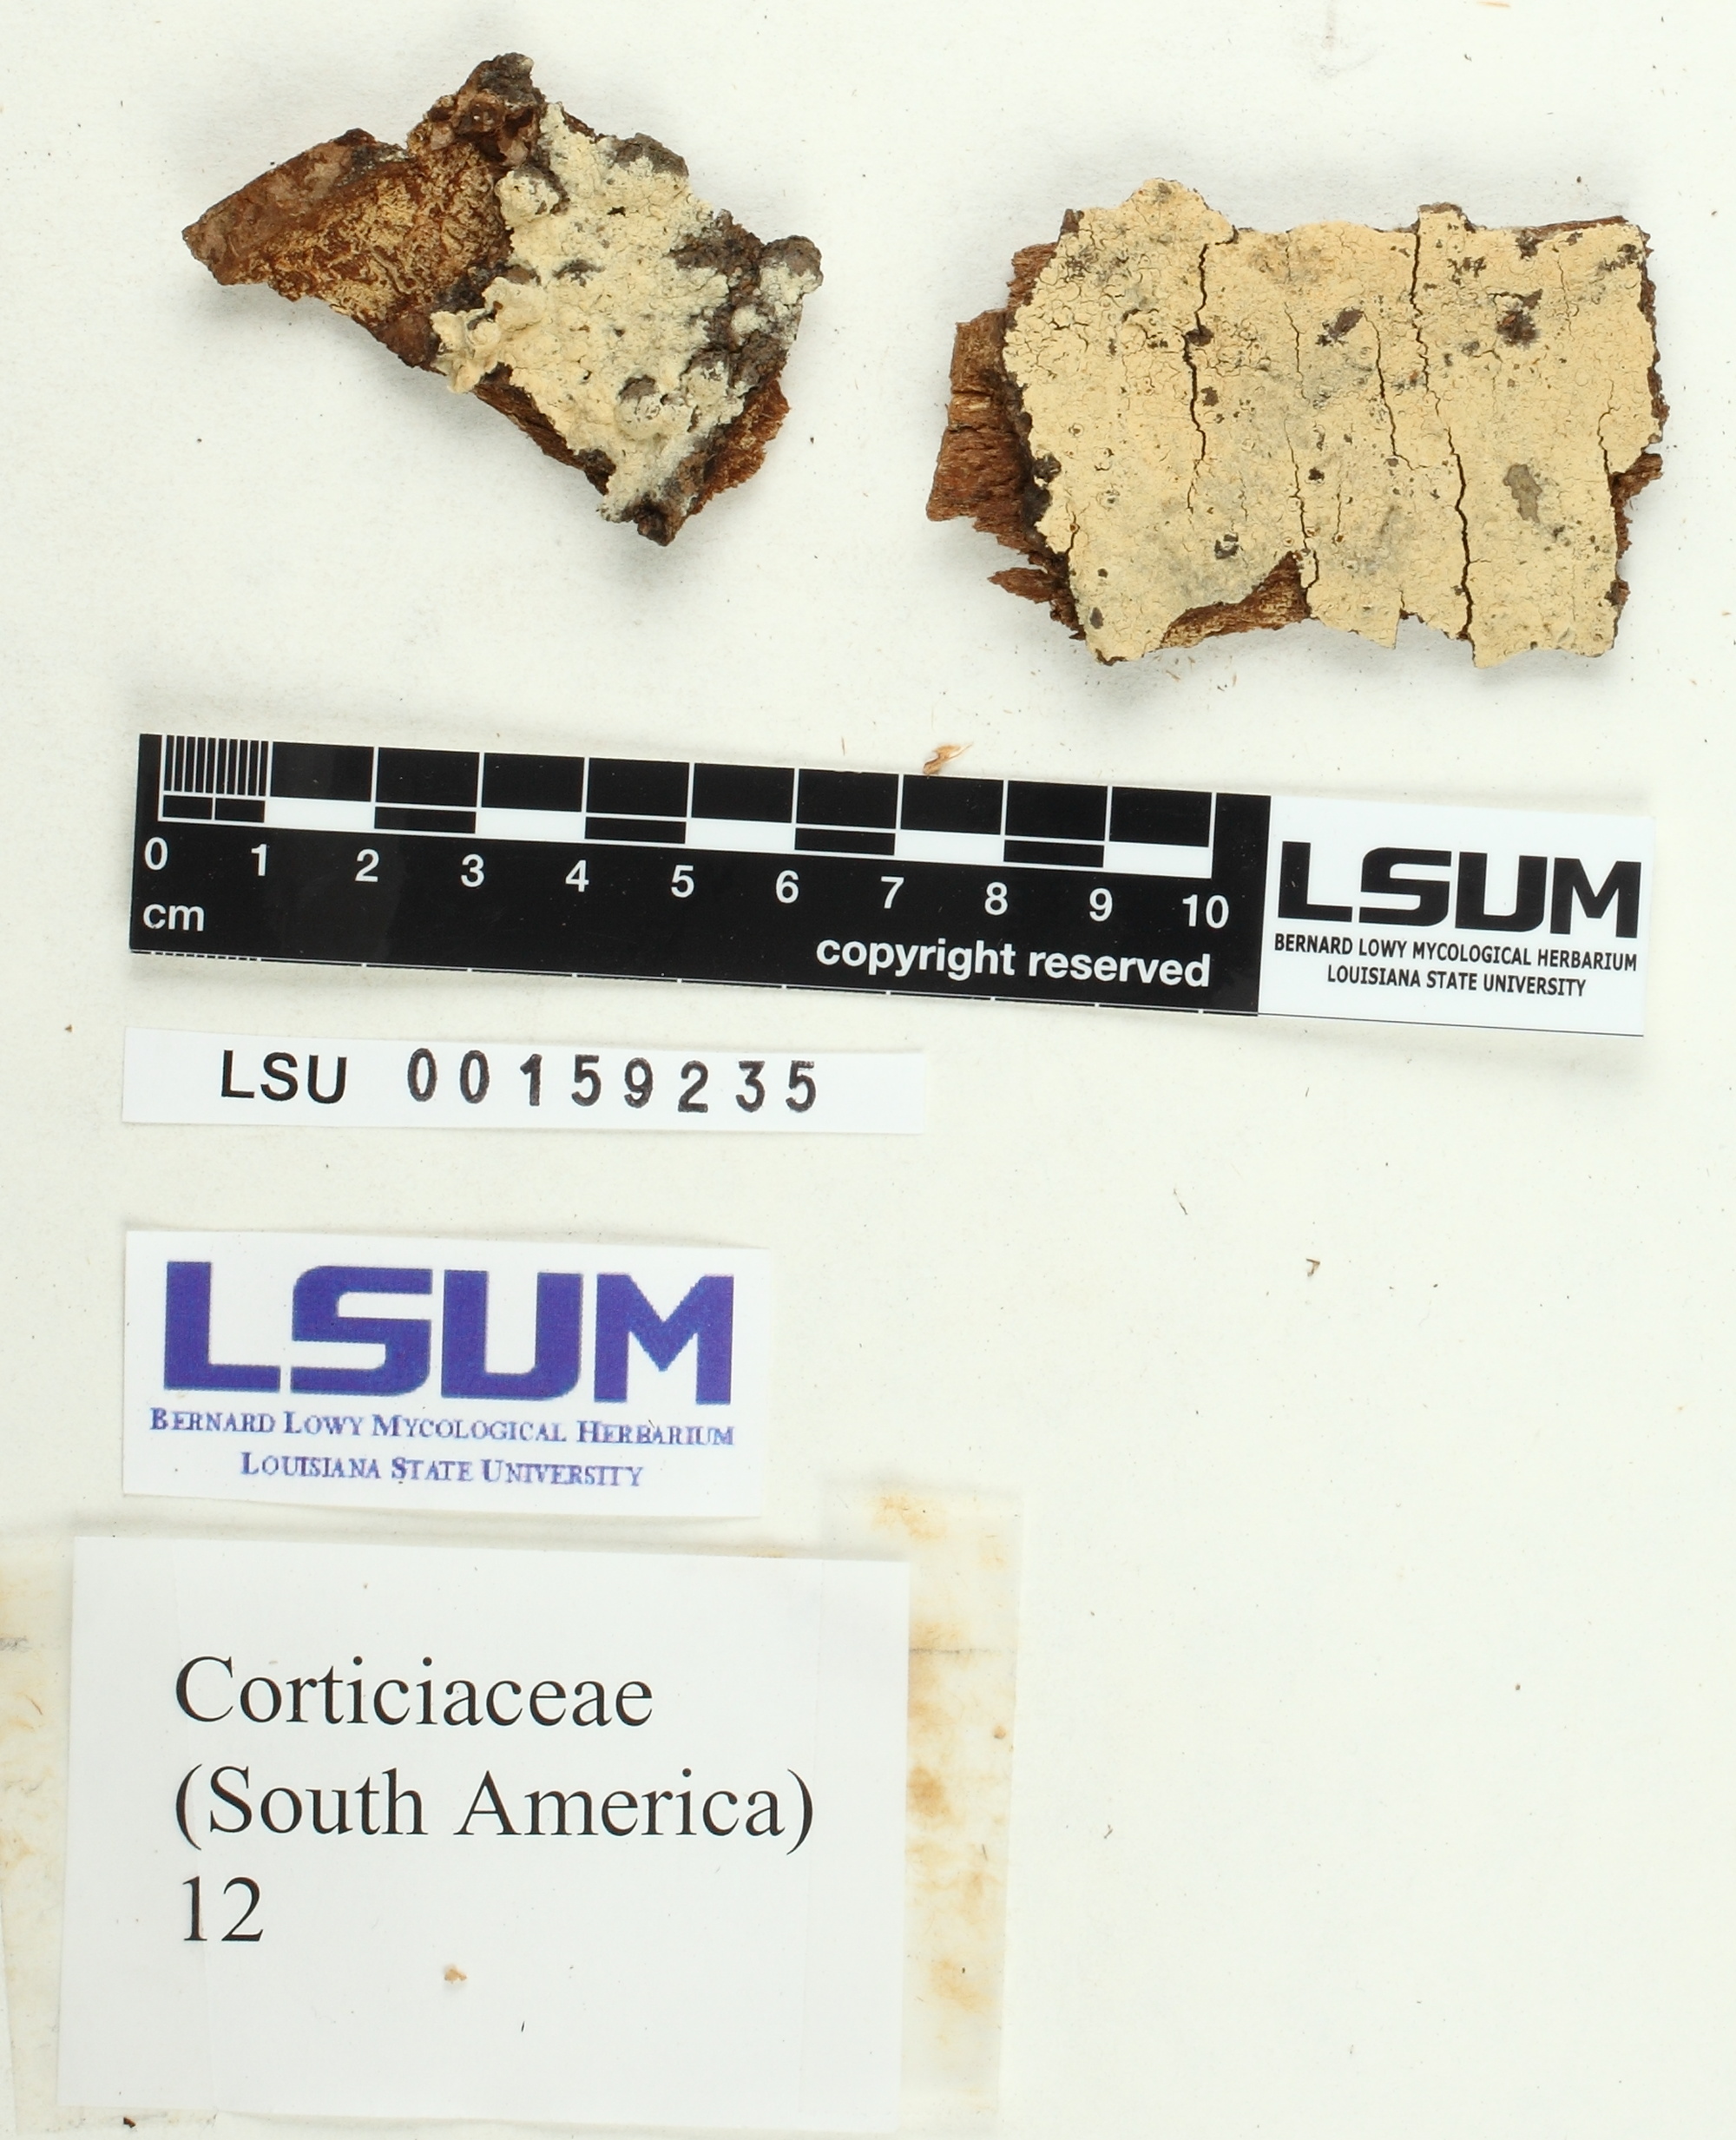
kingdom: Fungi
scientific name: Fungi
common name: Fungi
